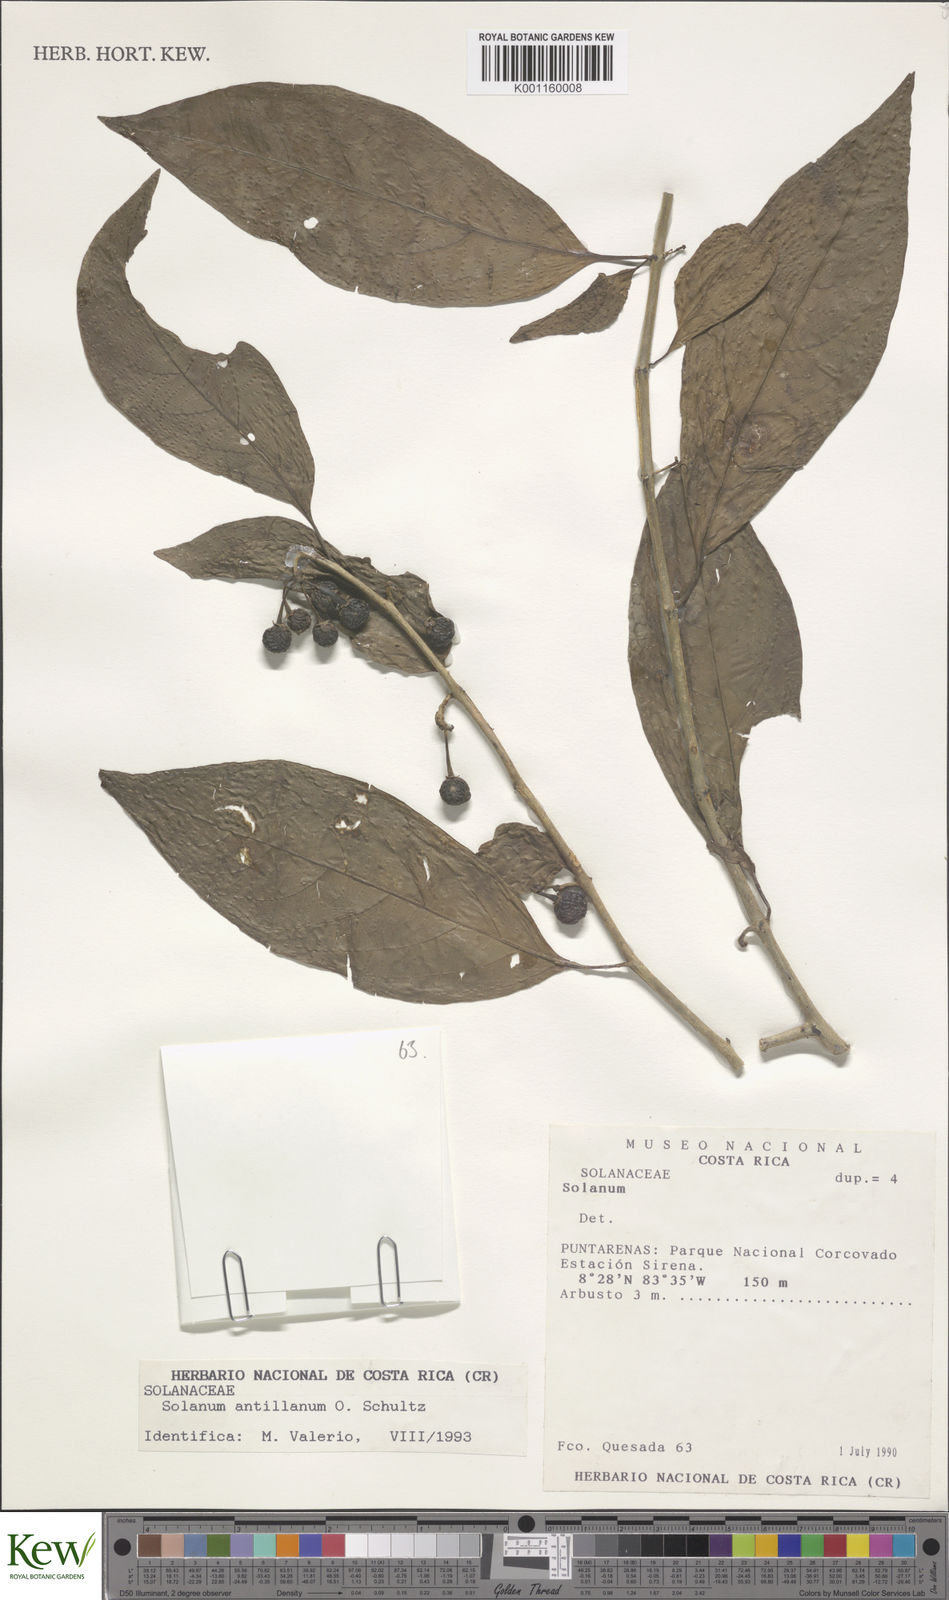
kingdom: Plantae
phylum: Tracheophyta
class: Magnoliopsida
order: Solanales
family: Solanaceae
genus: Solanum
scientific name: Solanum nudum
